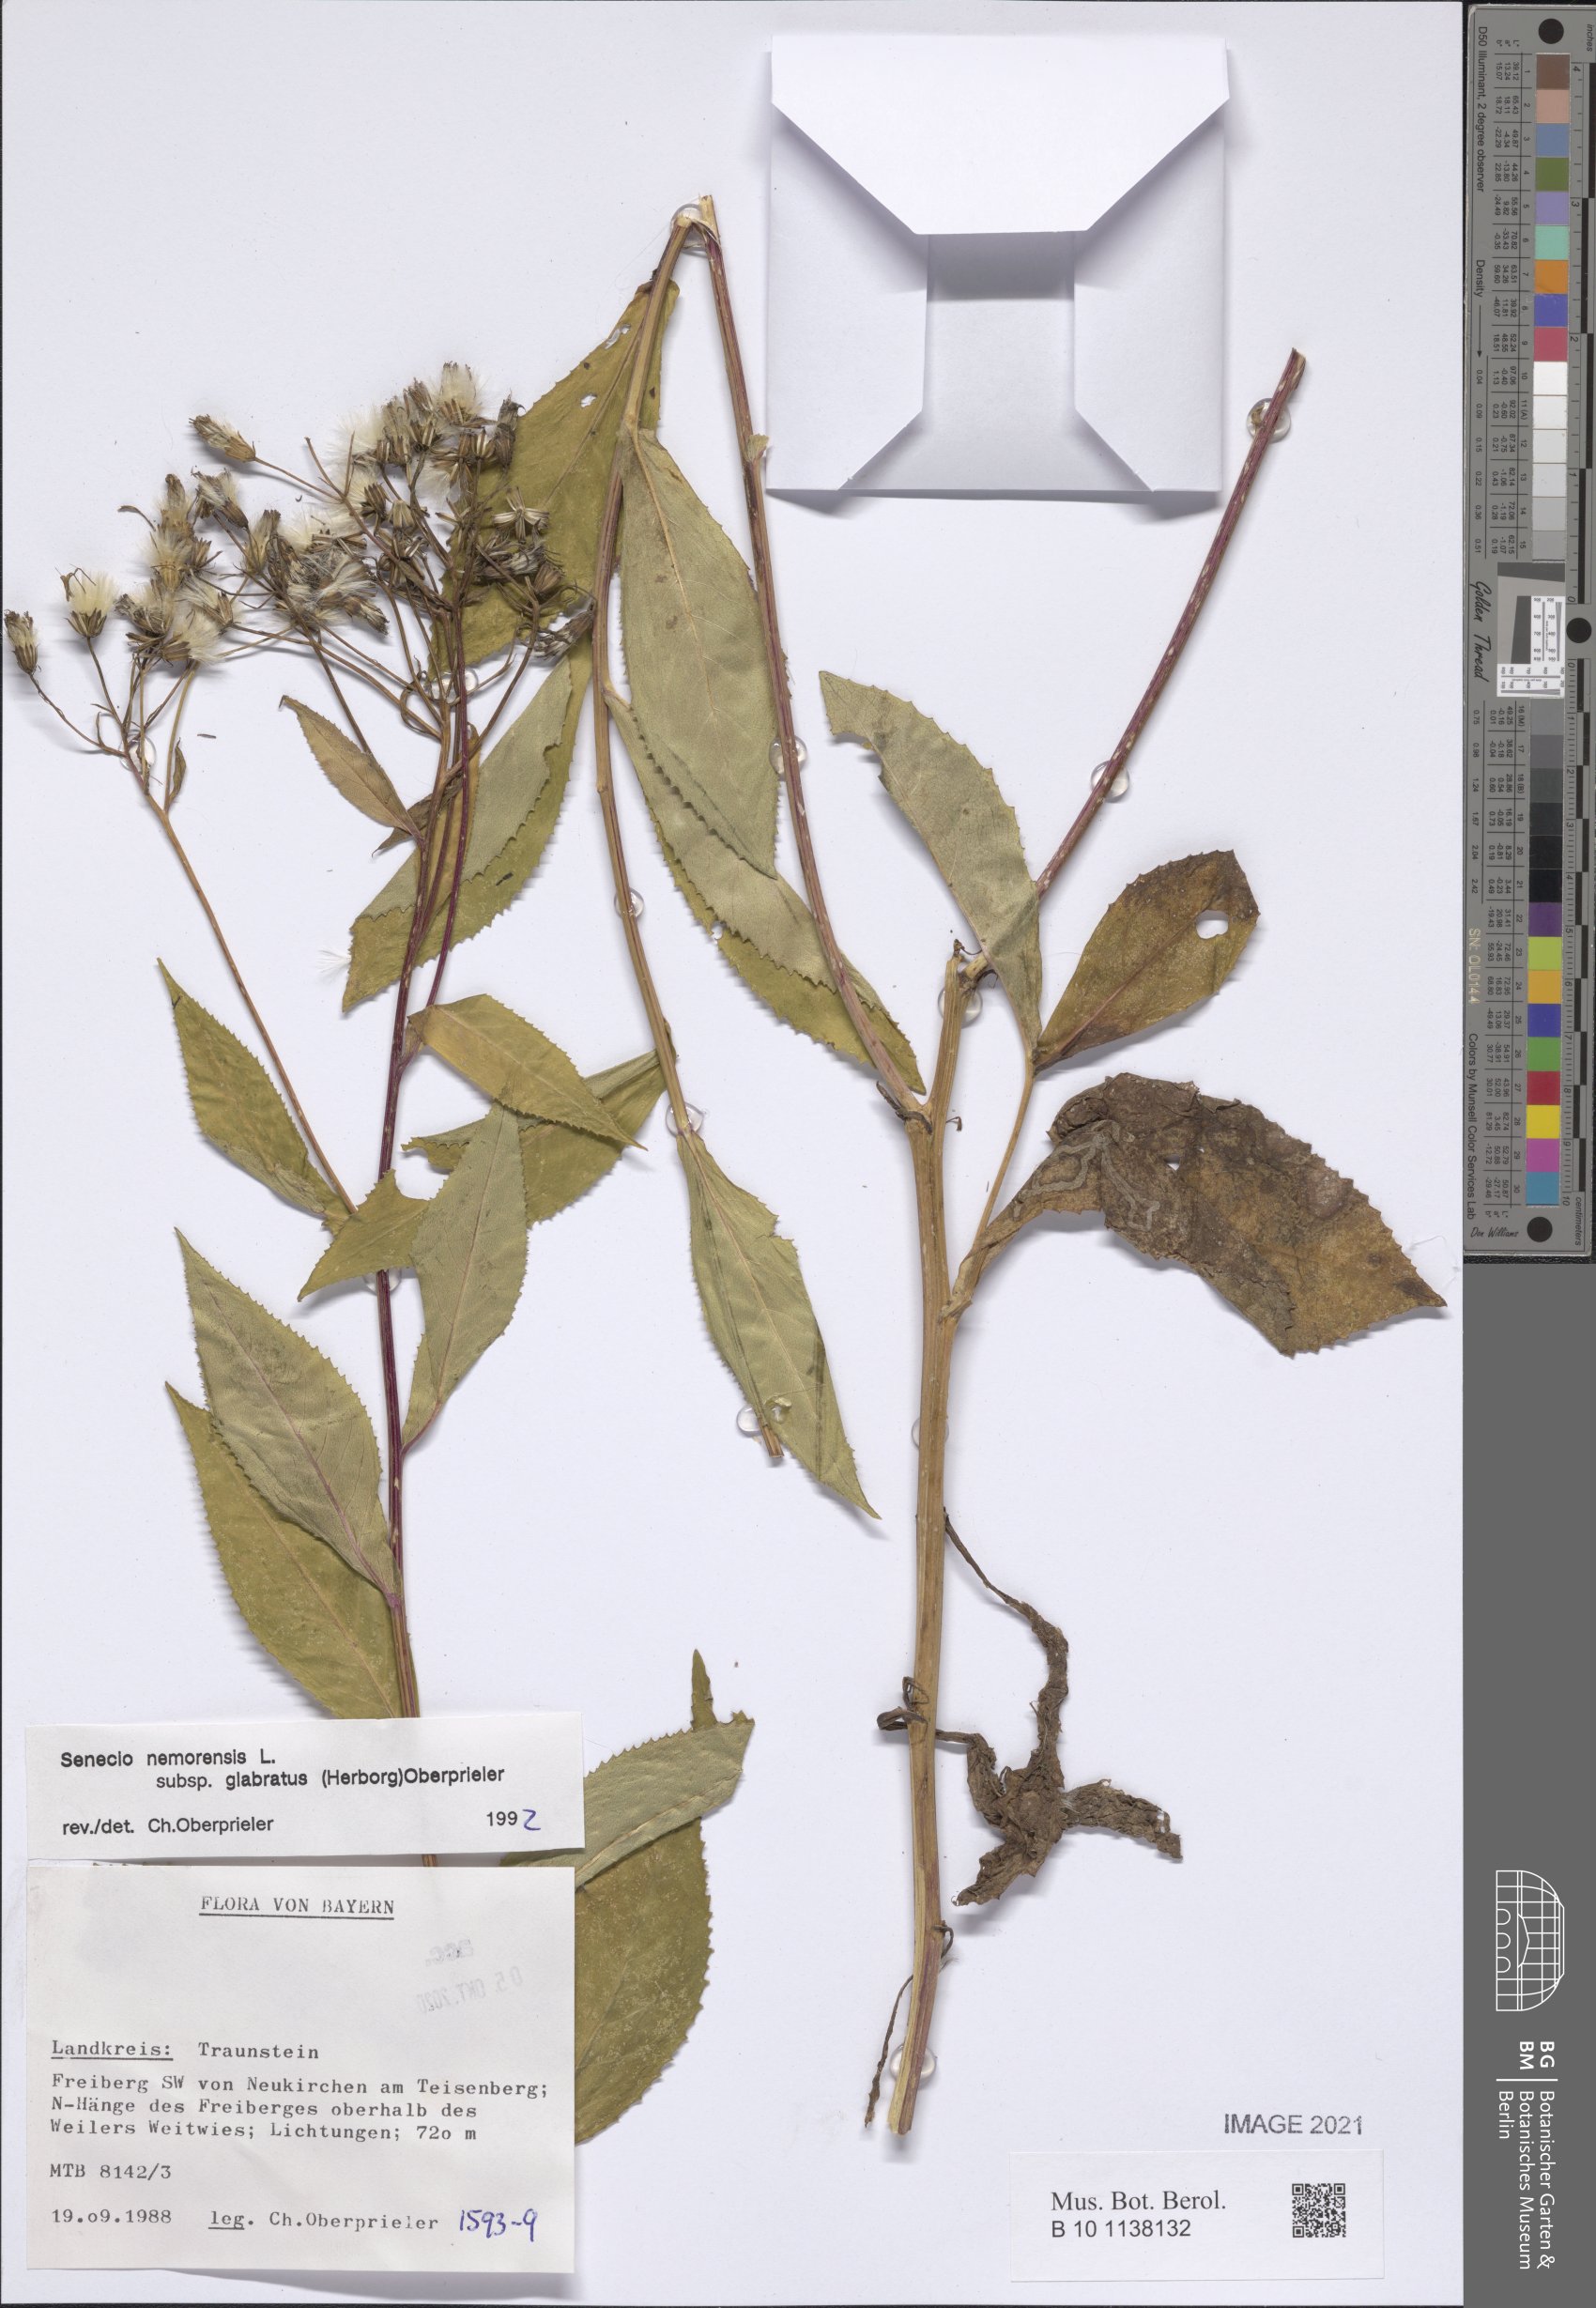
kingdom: Plantae
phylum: Tracheophyta
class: Magnoliopsida
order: Asterales
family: Asteraceae
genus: Senecio
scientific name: Senecio germanicus
